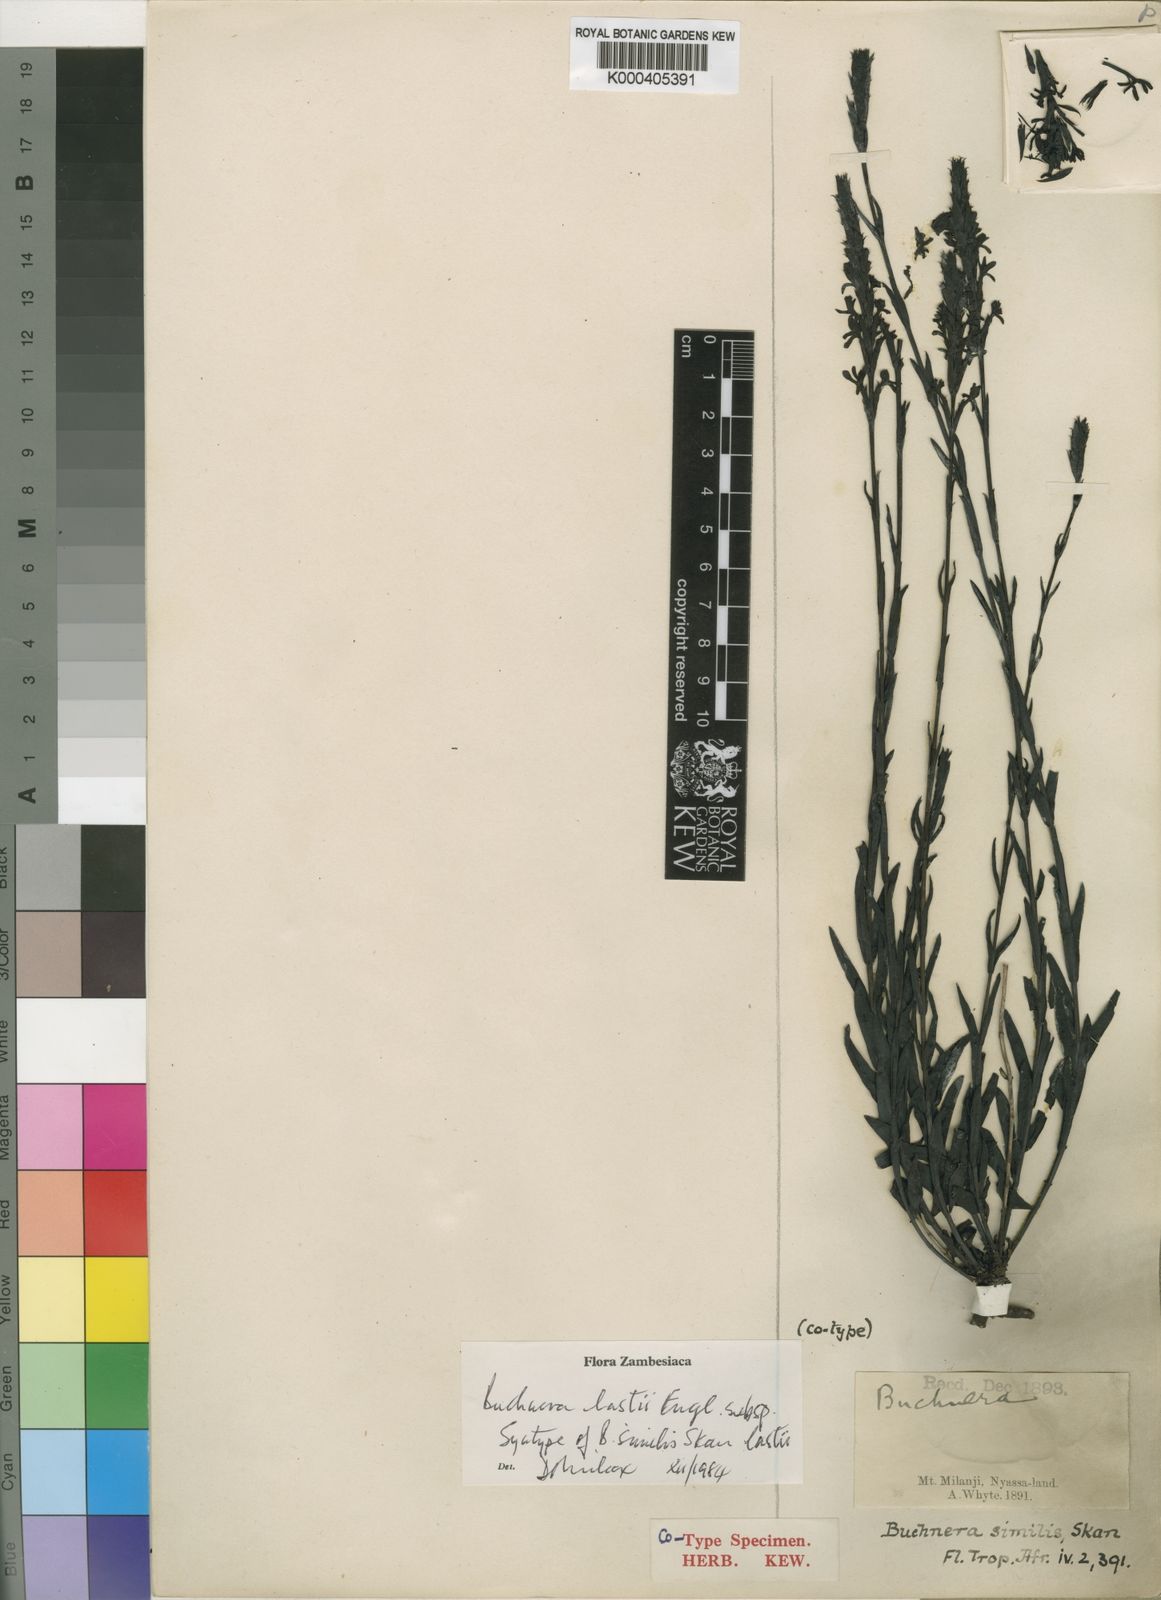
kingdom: Plantae
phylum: Tracheophyta
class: Magnoliopsida
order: Lamiales
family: Orobanchaceae
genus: Buchnera
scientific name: Buchnera lastii
